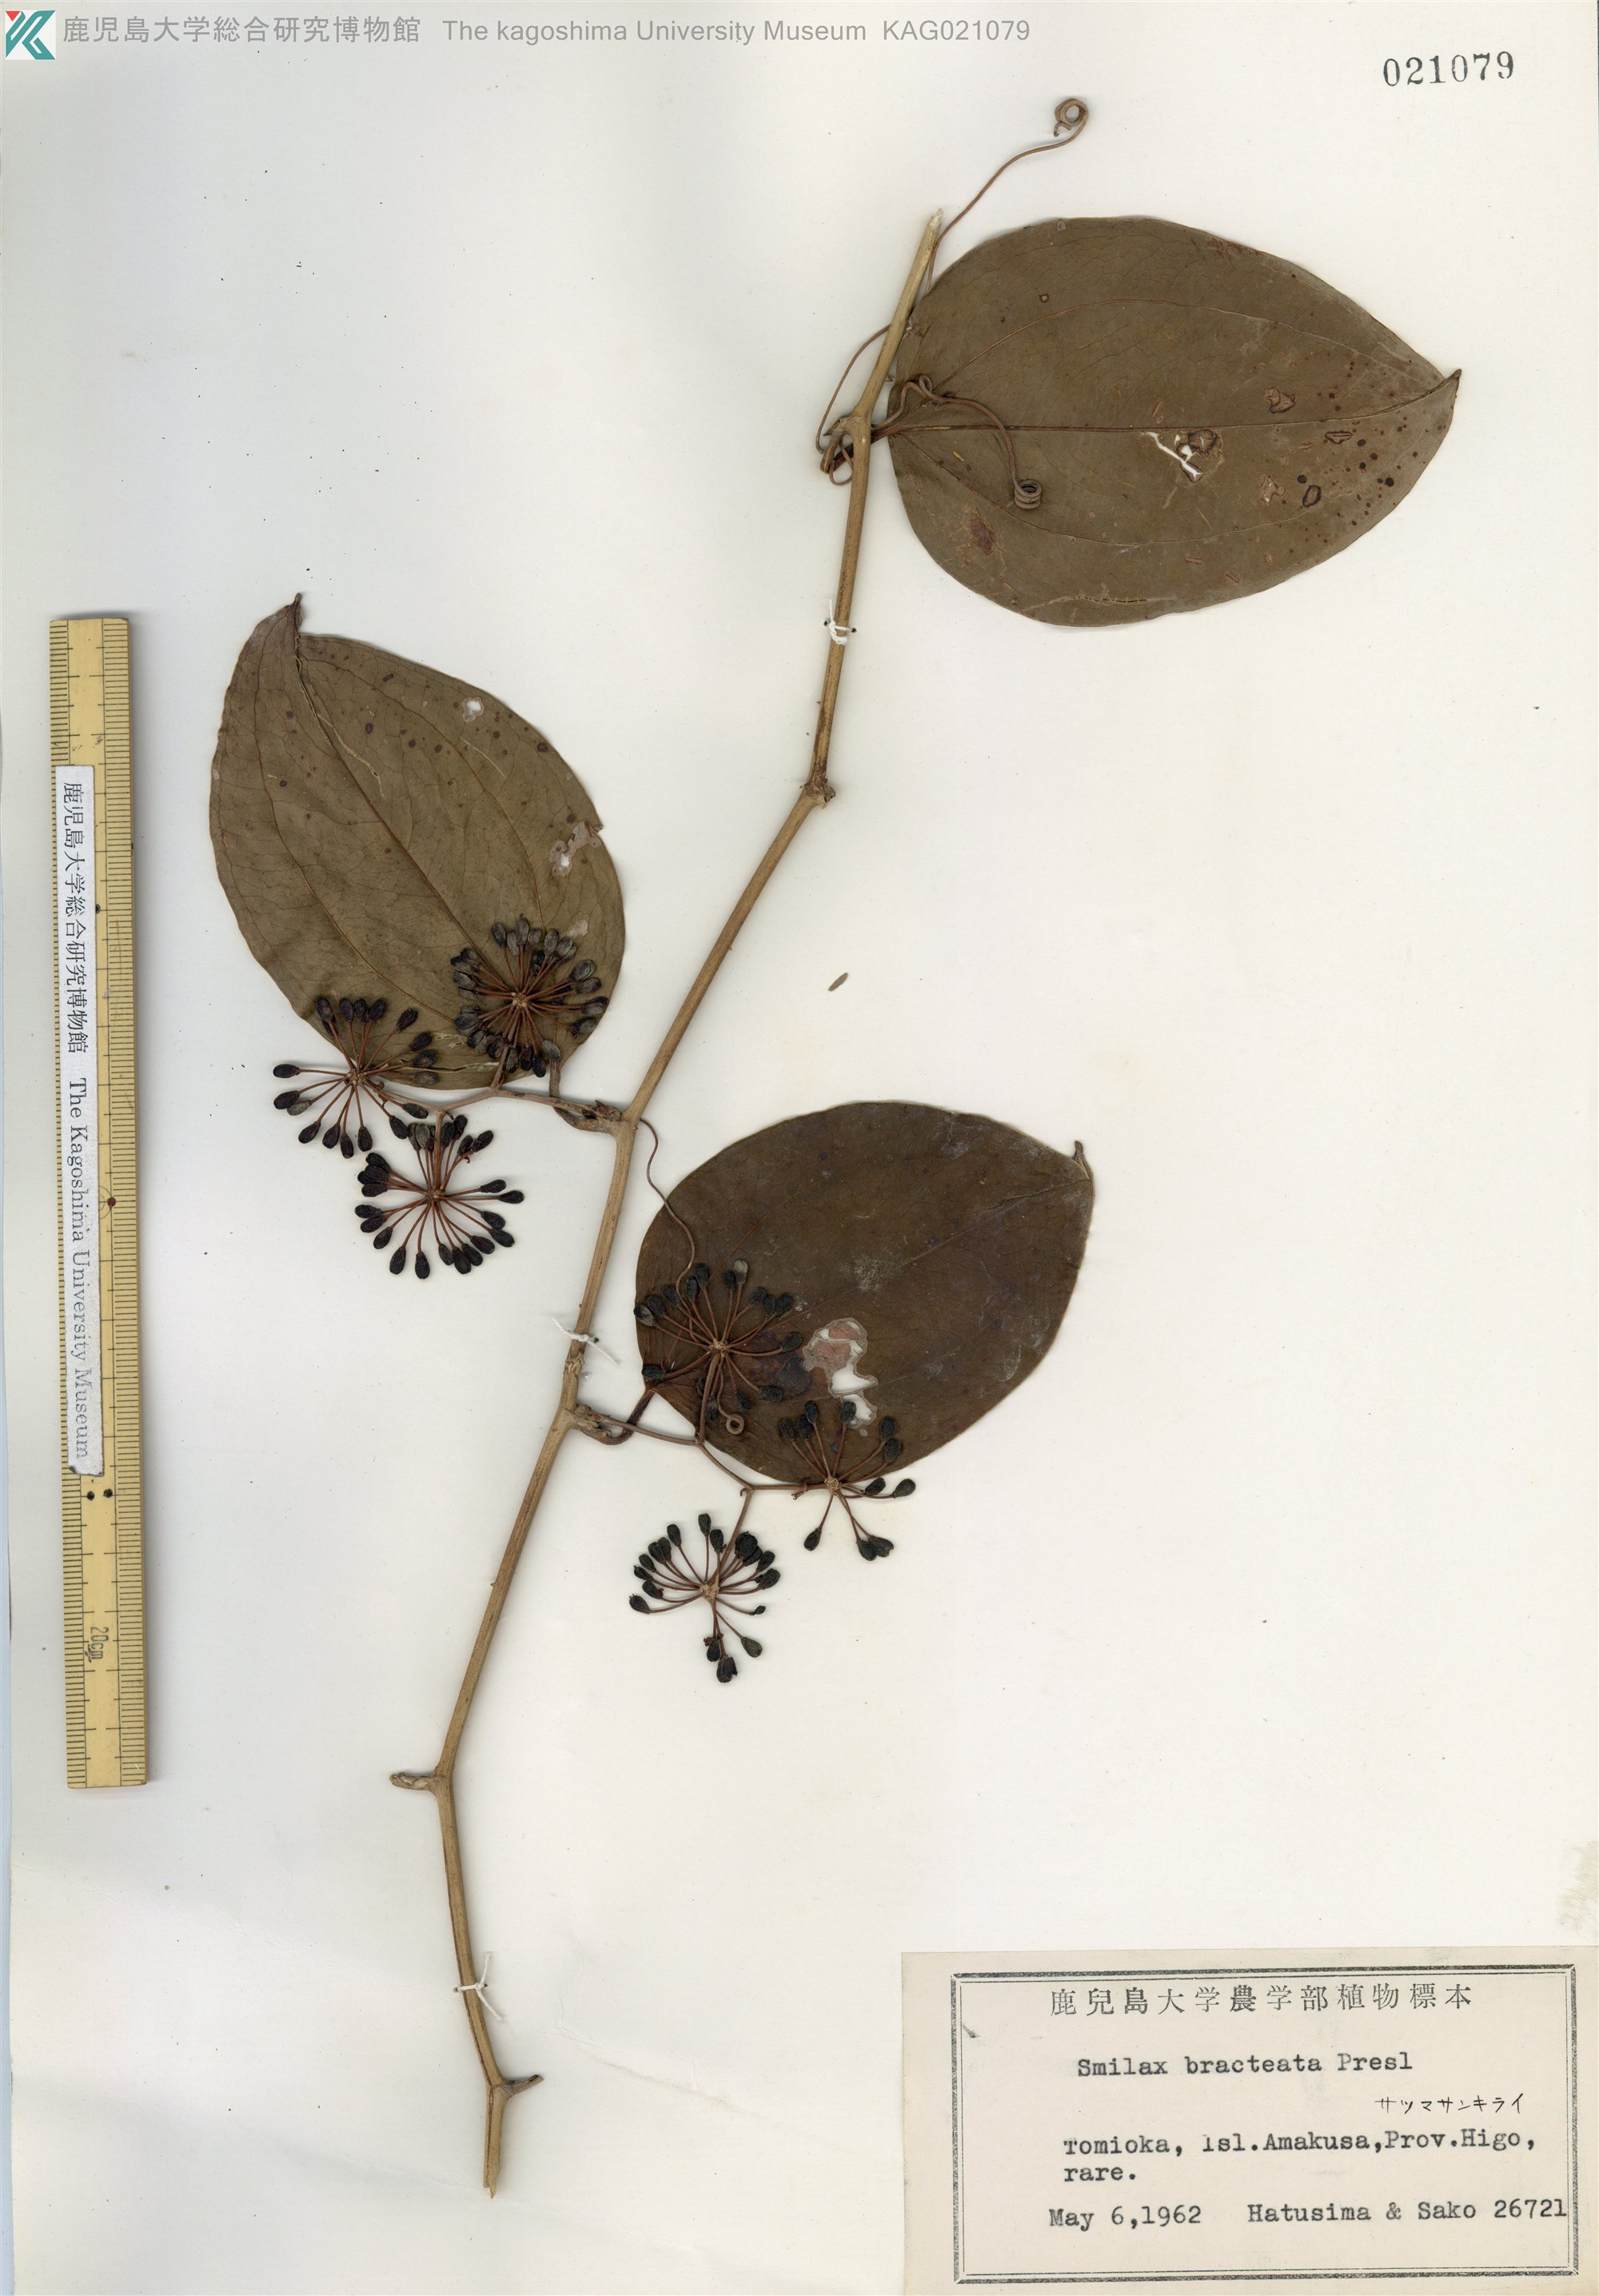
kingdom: Plantae
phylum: Tracheophyta
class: Liliopsida
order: Liliales
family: Smilacaceae
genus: Smilax
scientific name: Smilax bracteata
